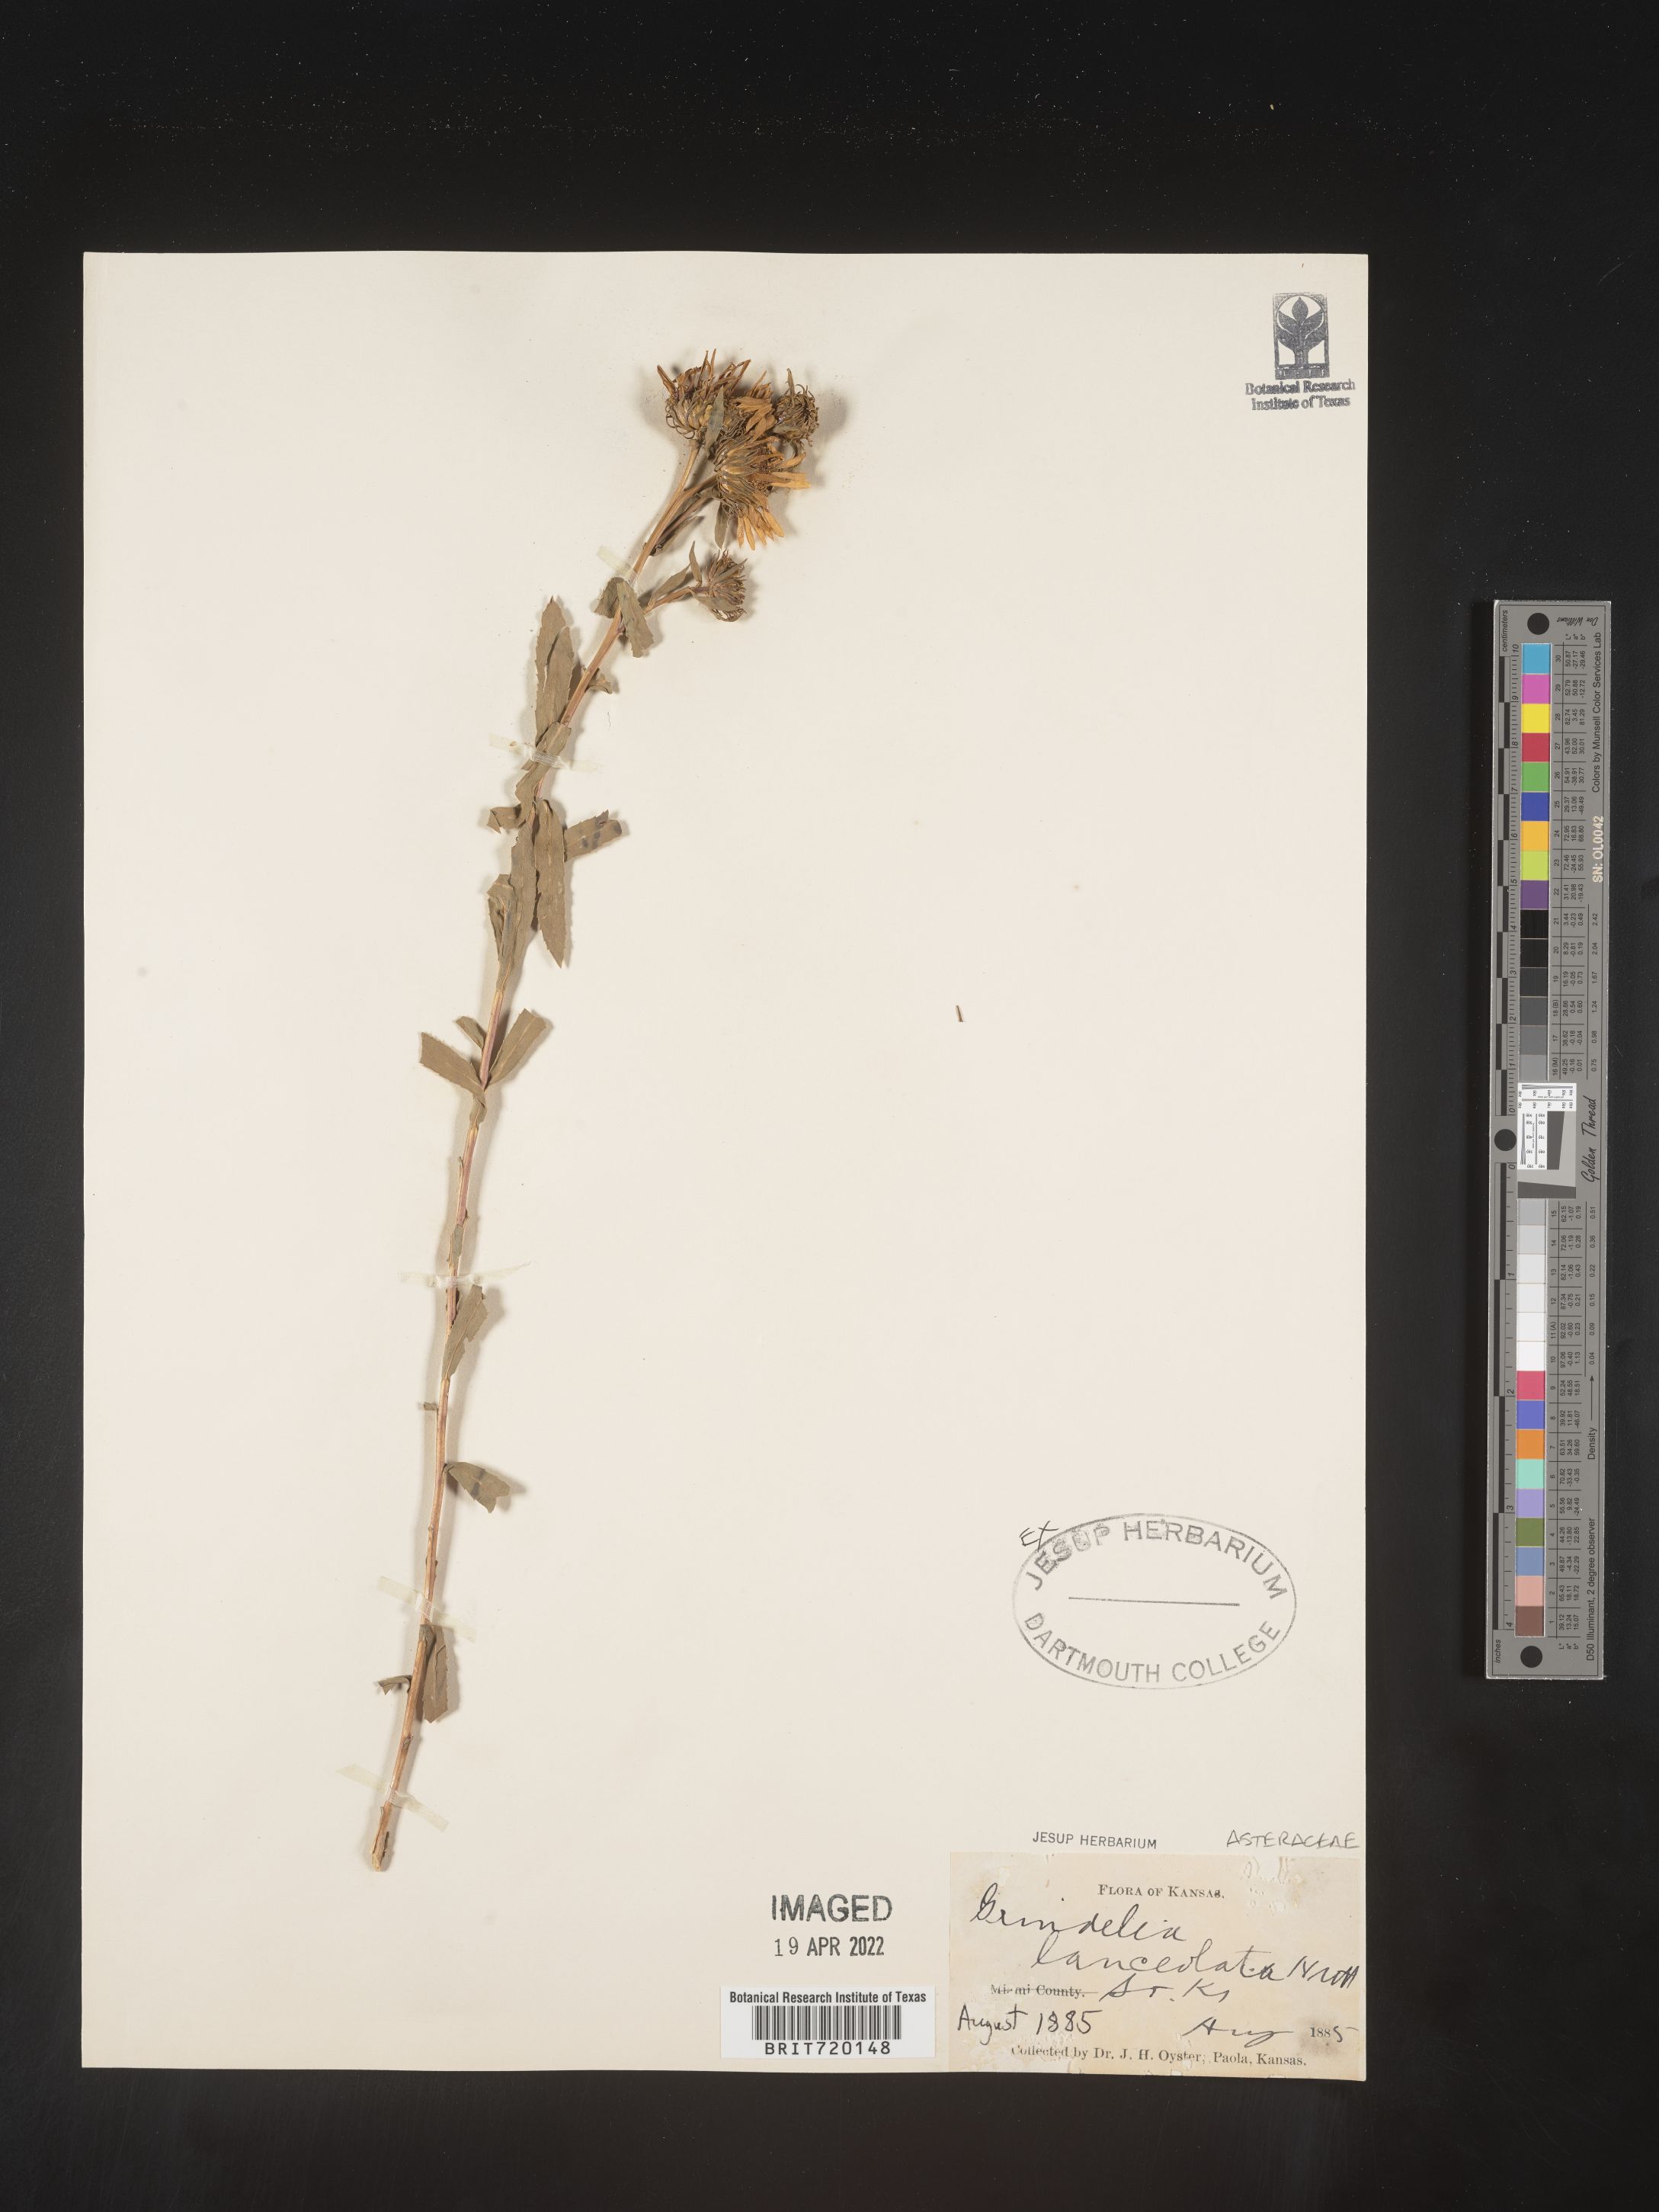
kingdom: Plantae
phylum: Tracheophyta
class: Magnoliopsida
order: Asterales
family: Asteraceae
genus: Grindelia
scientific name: Grindelia lanceolata
